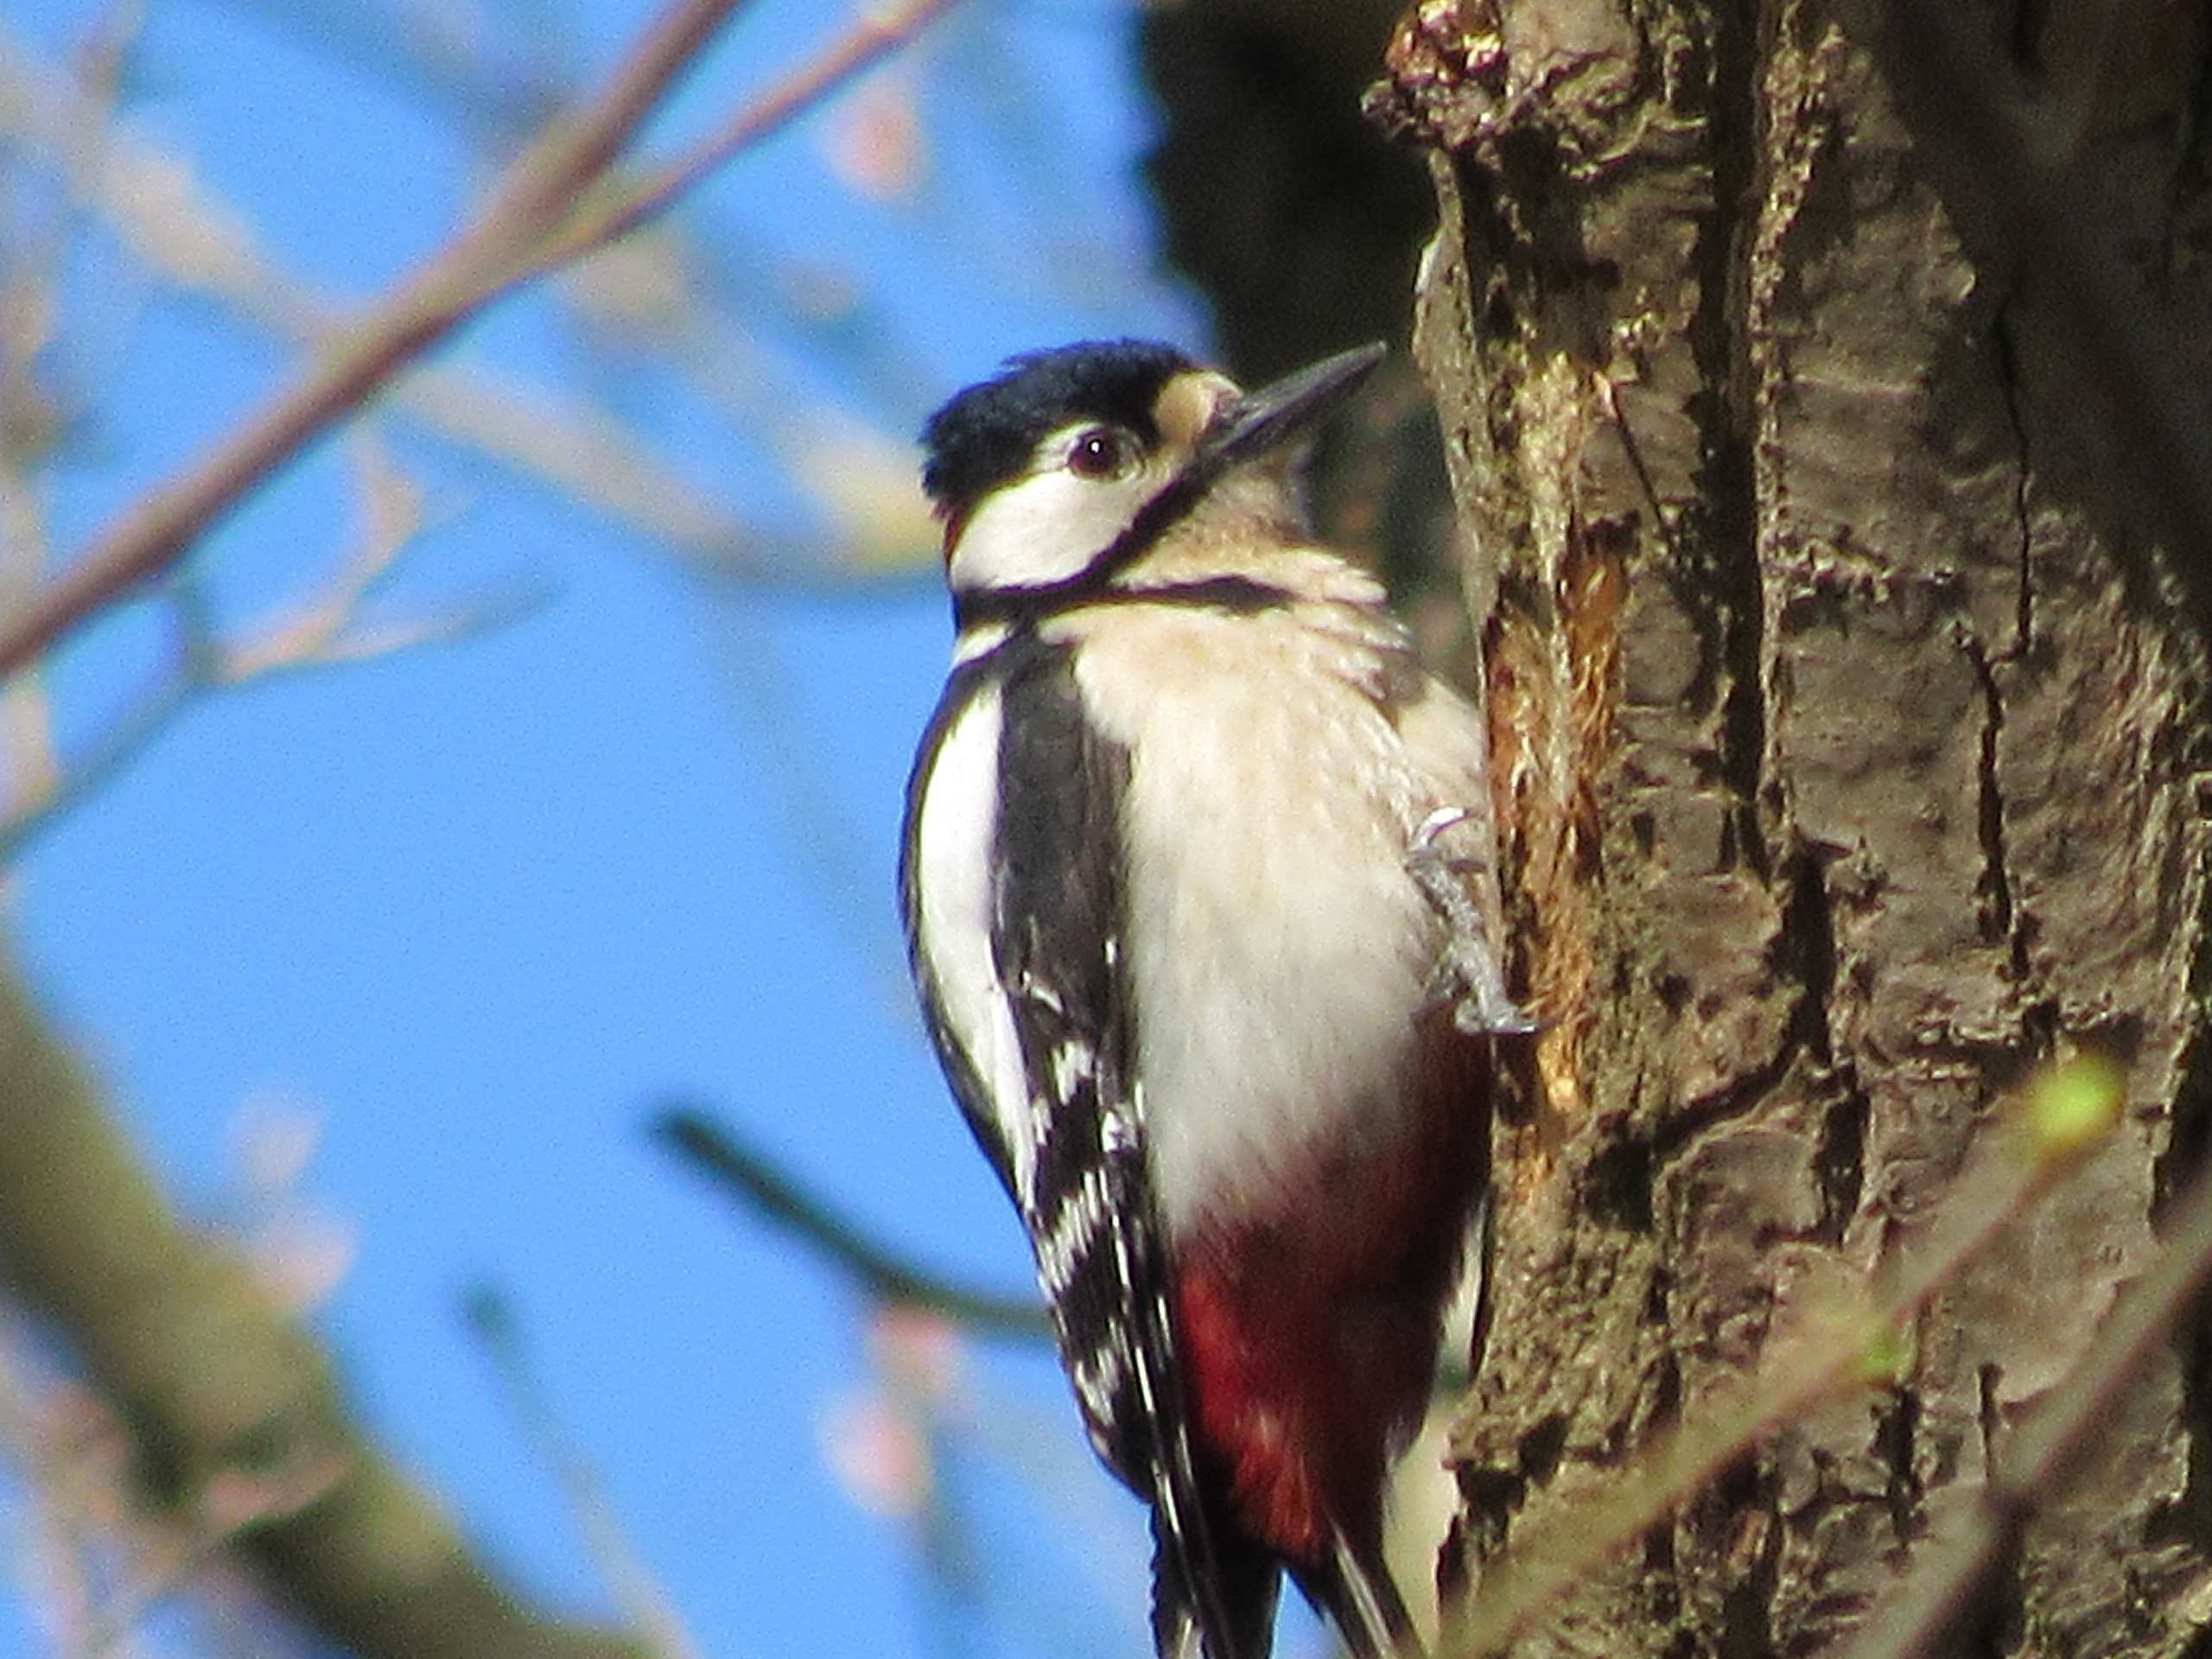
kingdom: Animalia
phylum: Chordata
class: Aves
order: Piciformes
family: Picidae
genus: Dendrocopos
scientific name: Dendrocopos major
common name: Stor flagspætte
